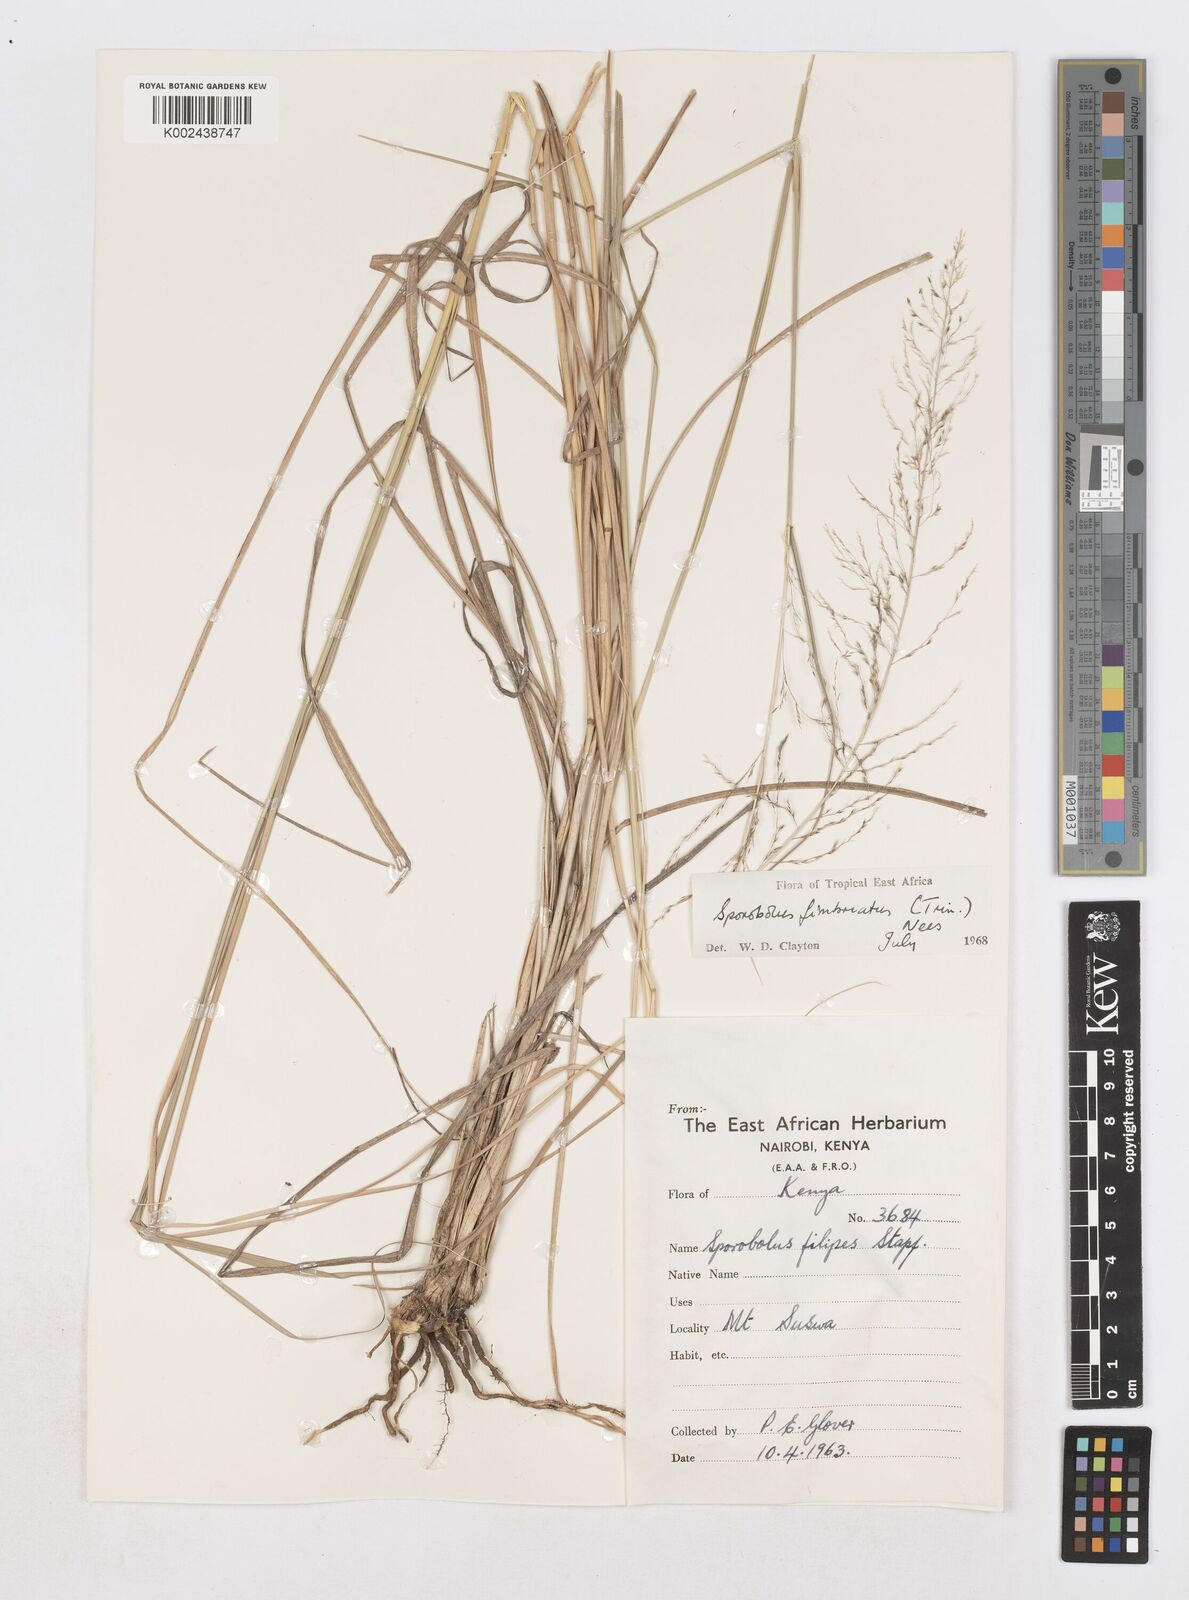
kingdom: Plantae
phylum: Tracheophyta
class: Liliopsida
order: Poales
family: Poaceae
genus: Sporobolus
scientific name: Sporobolus fimbriatus
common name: Fringed dropseed
